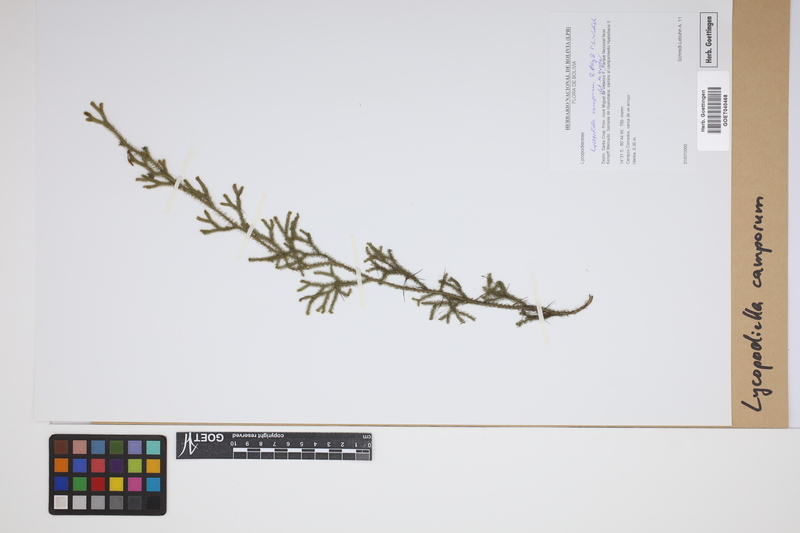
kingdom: Plantae
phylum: Tracheophyta
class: Lycopodiopsida
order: Lycopodiales
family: Lycopodiaceae
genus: Palhinhaea
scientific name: Palhinhaea camporum
